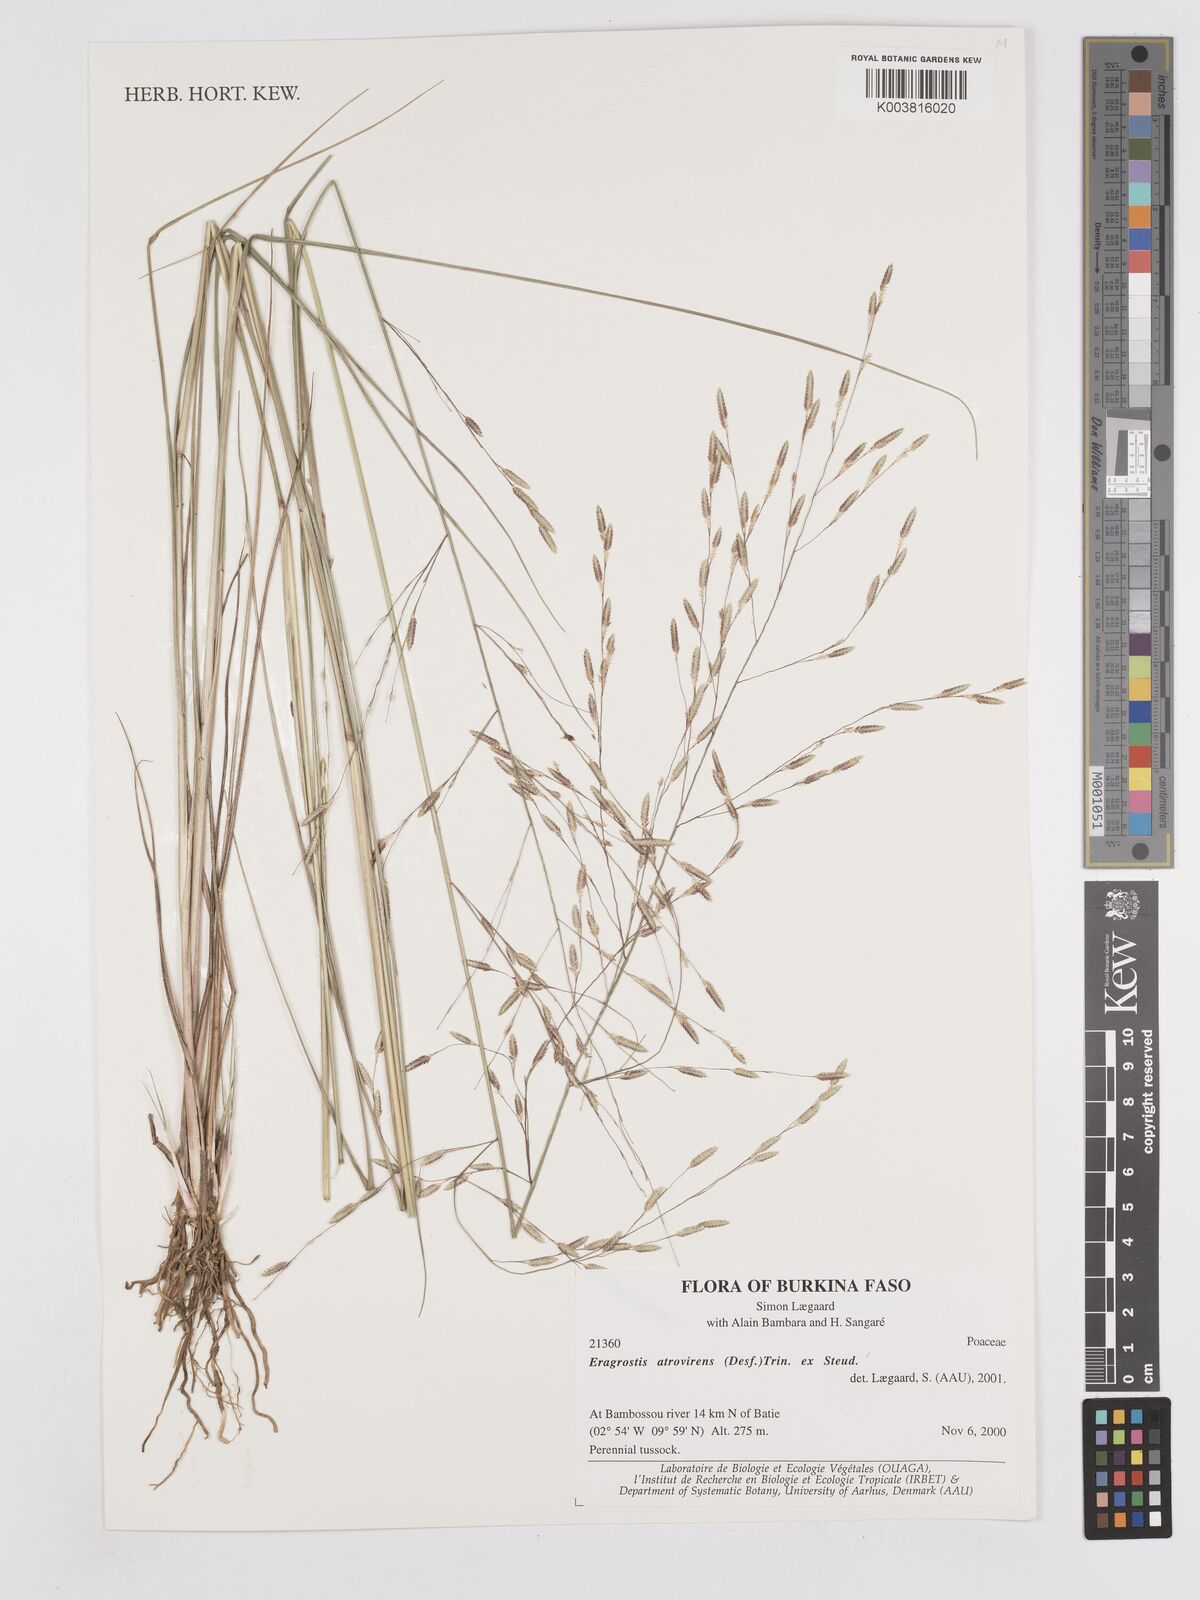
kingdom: Plantae
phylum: Tracheophyta
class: Liliopsida
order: Poales
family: Poaceae
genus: Eragrostis
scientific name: Eragrostis atrovirens
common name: Thalia lovegrass
